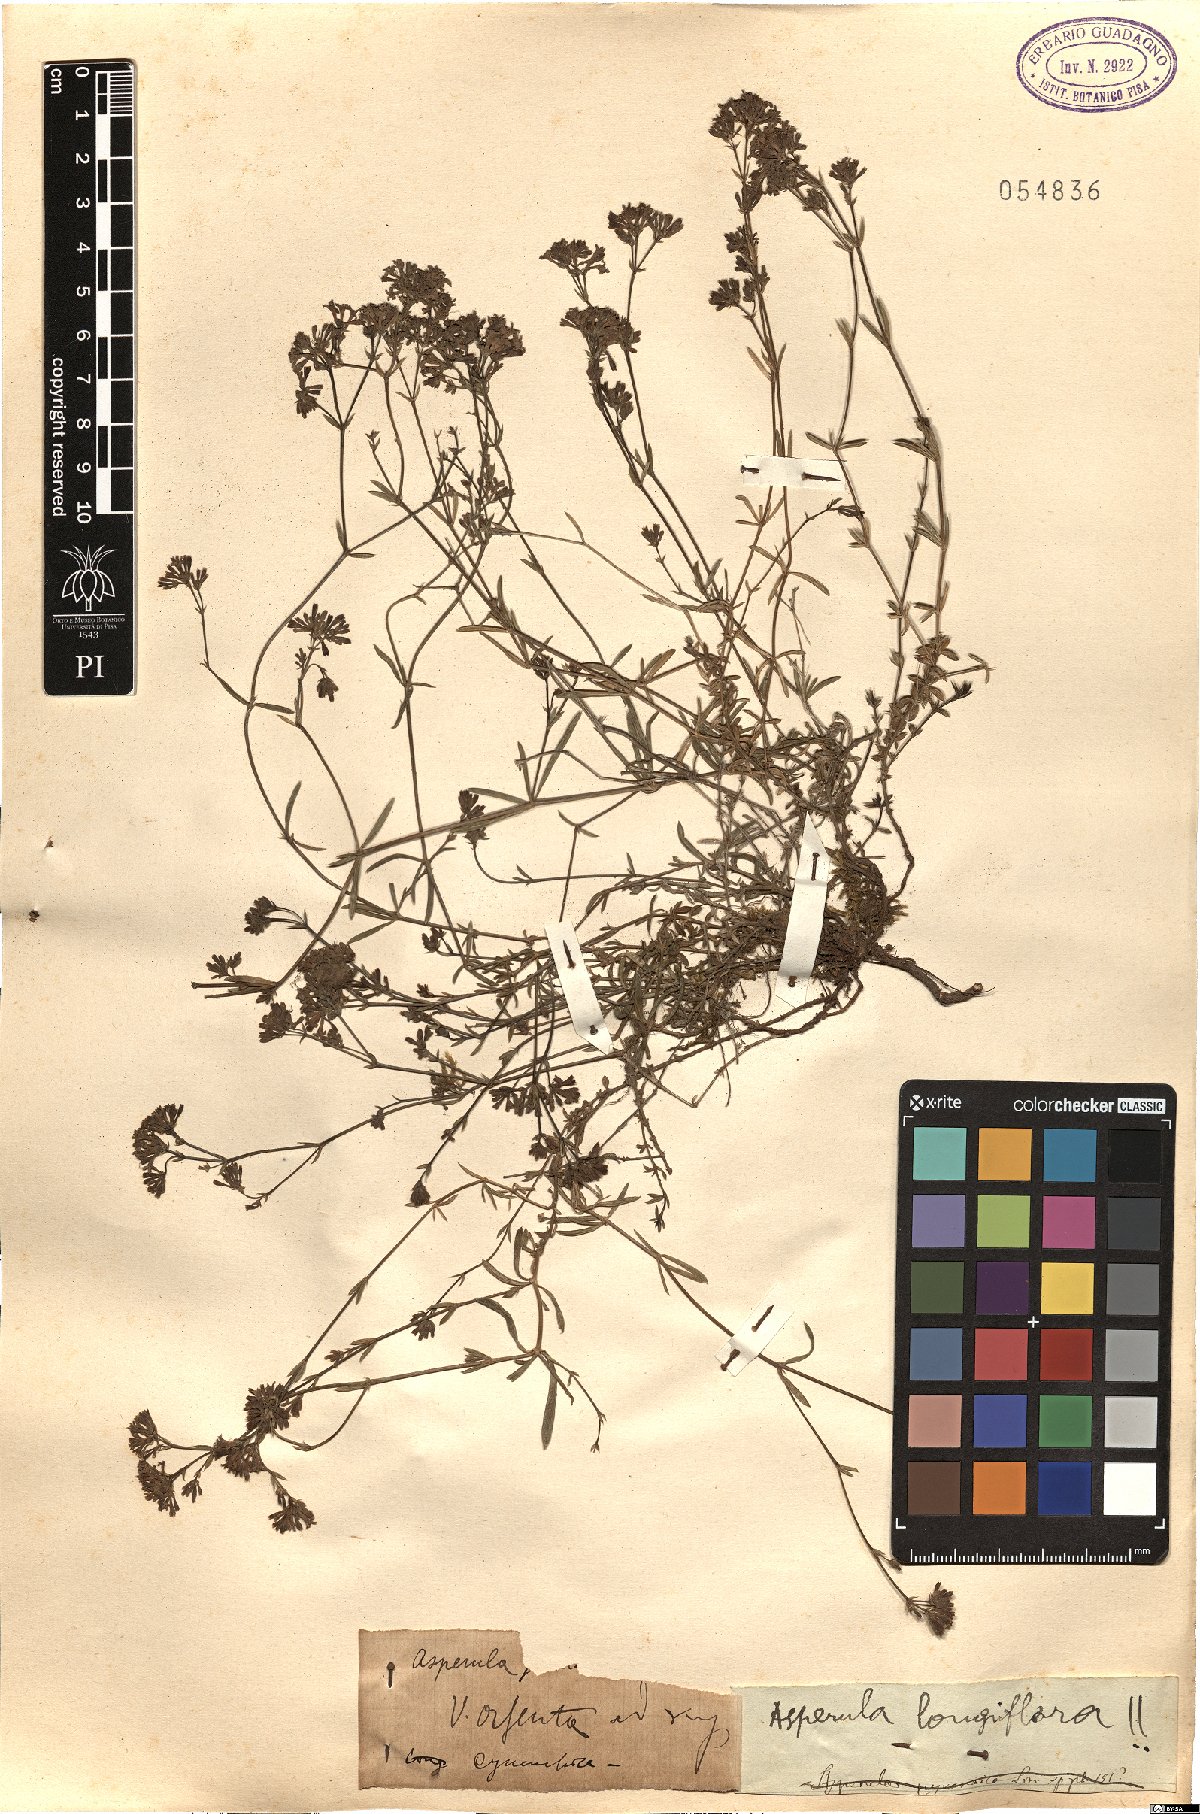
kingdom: Plantae
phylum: Tracheophyta
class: Magnoliopsida
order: Gentianales
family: Rubiaceae
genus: Cynanchica
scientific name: Cynanchica pyrenaica
